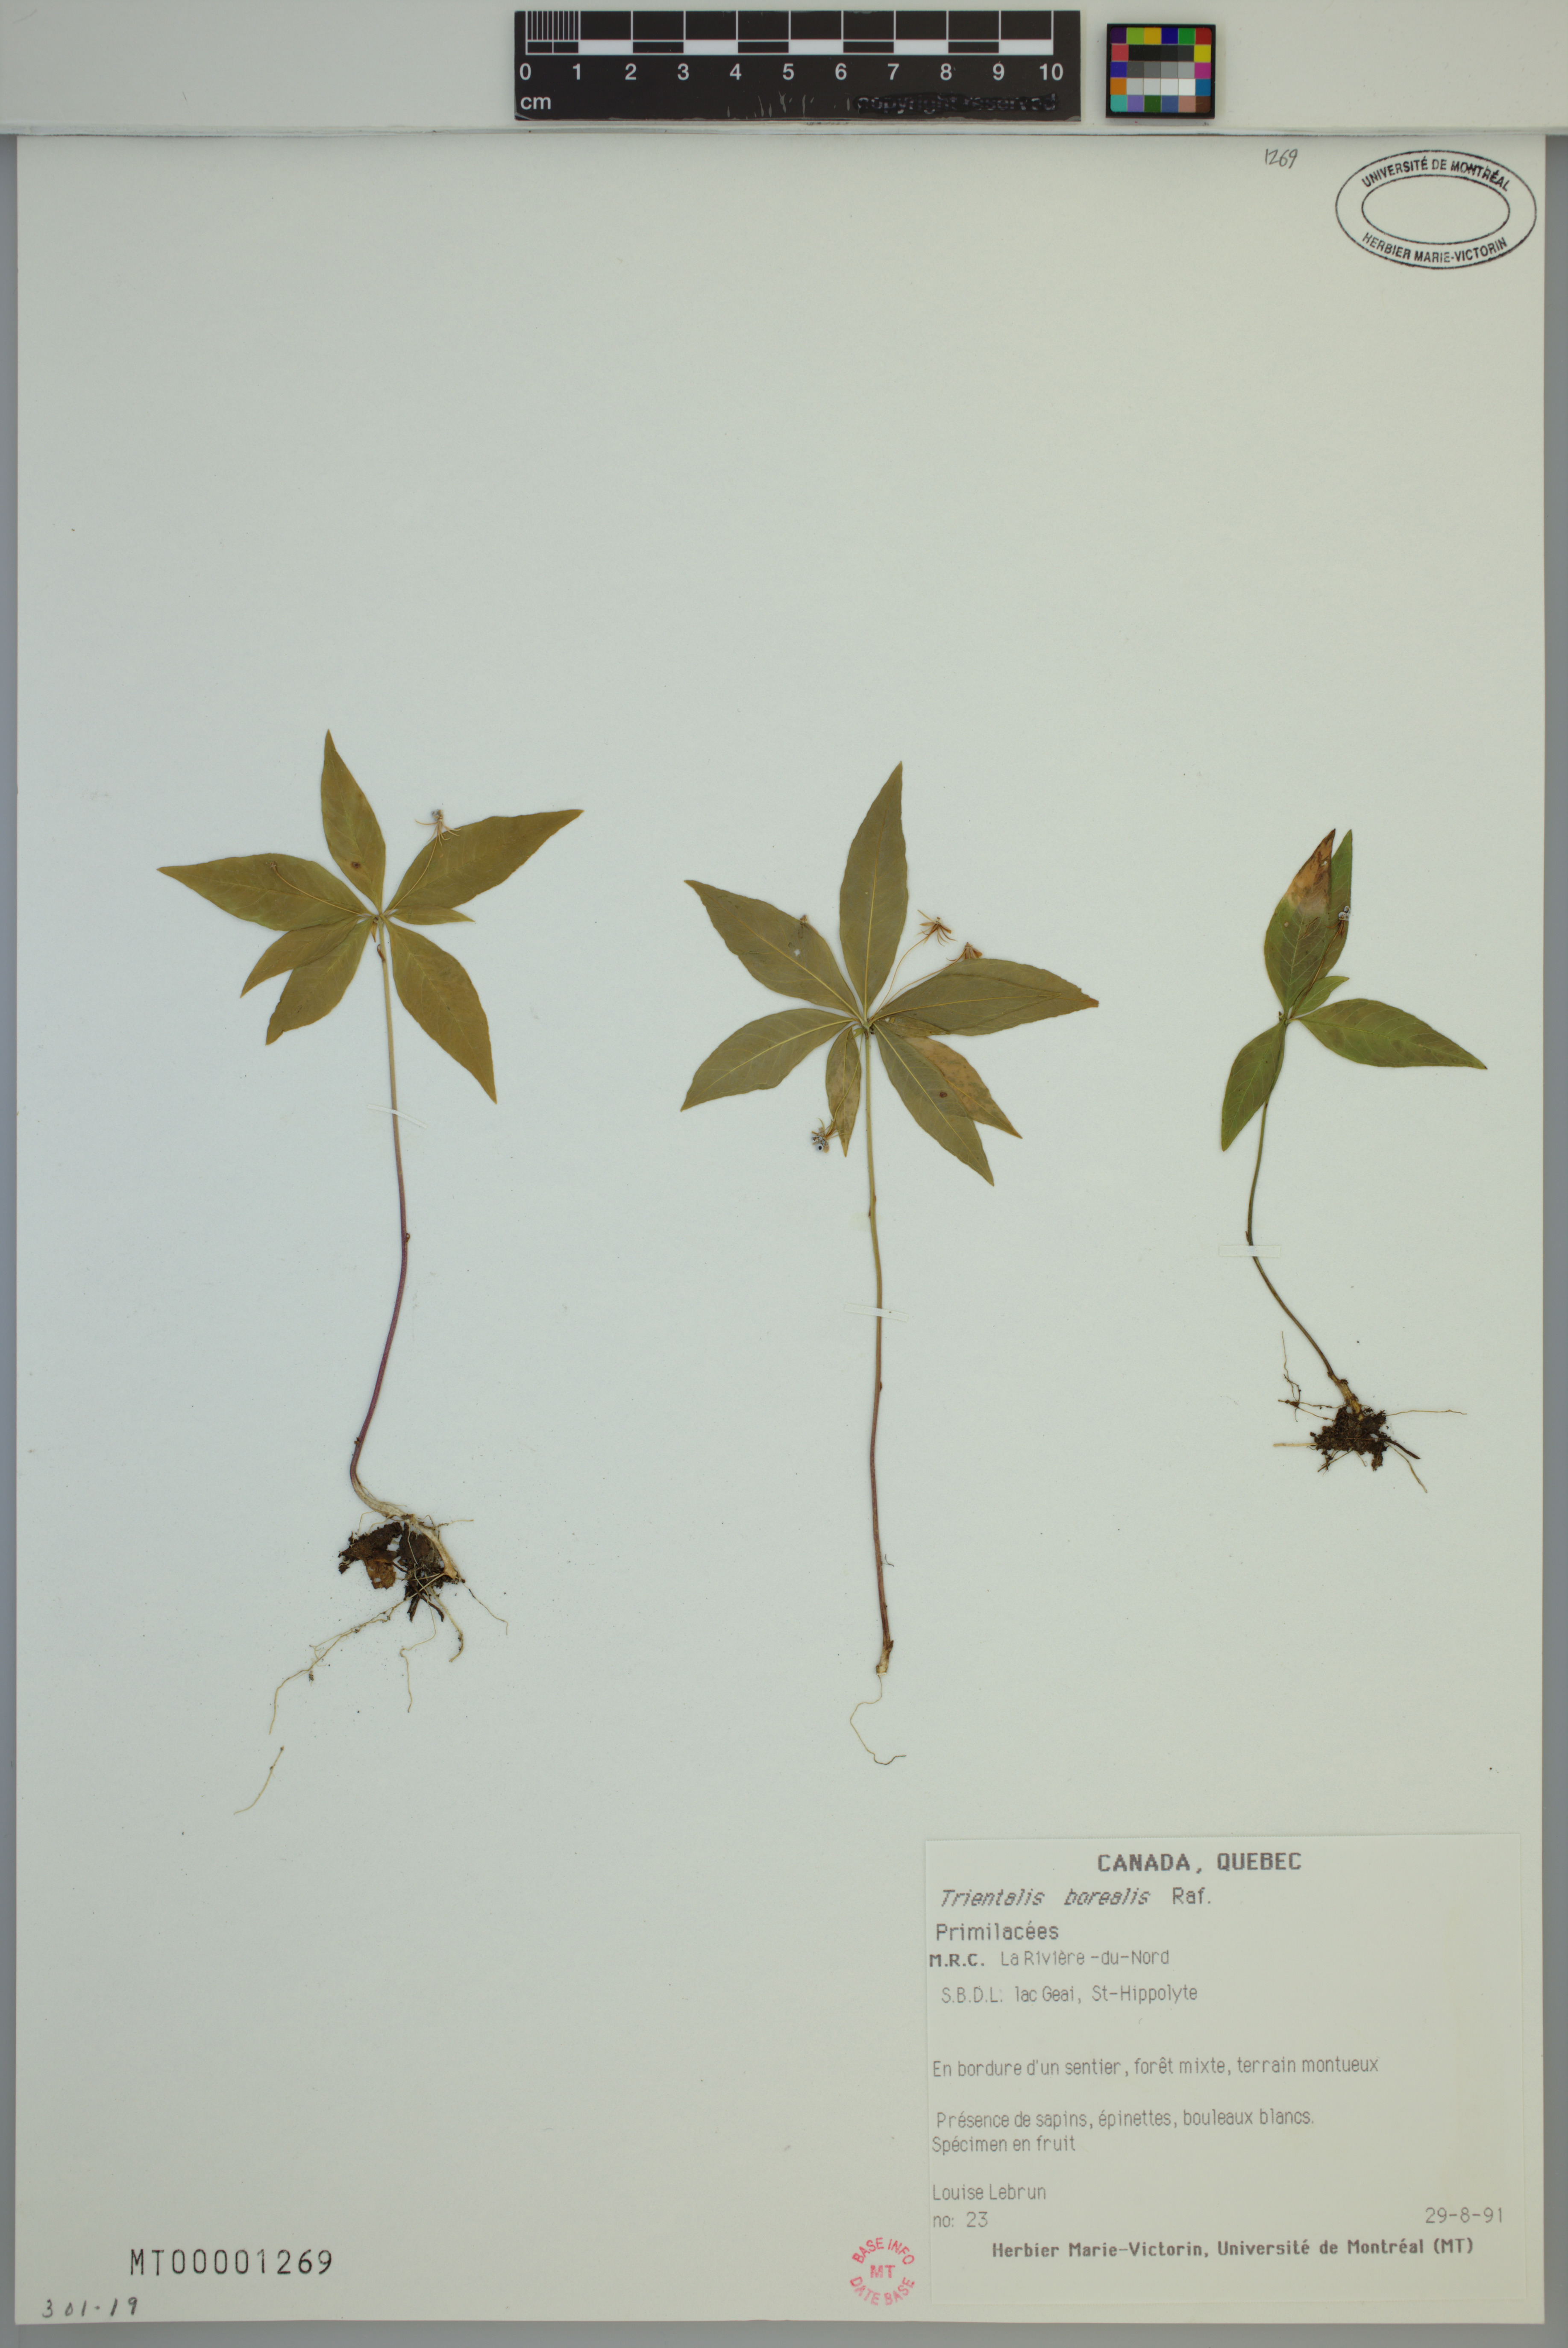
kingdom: Plantae
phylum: Tracheophyta
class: Magnoliopsida
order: Ericales
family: Primulaceae
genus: Lysimachia
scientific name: Lysimachia borealis
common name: American starflower
